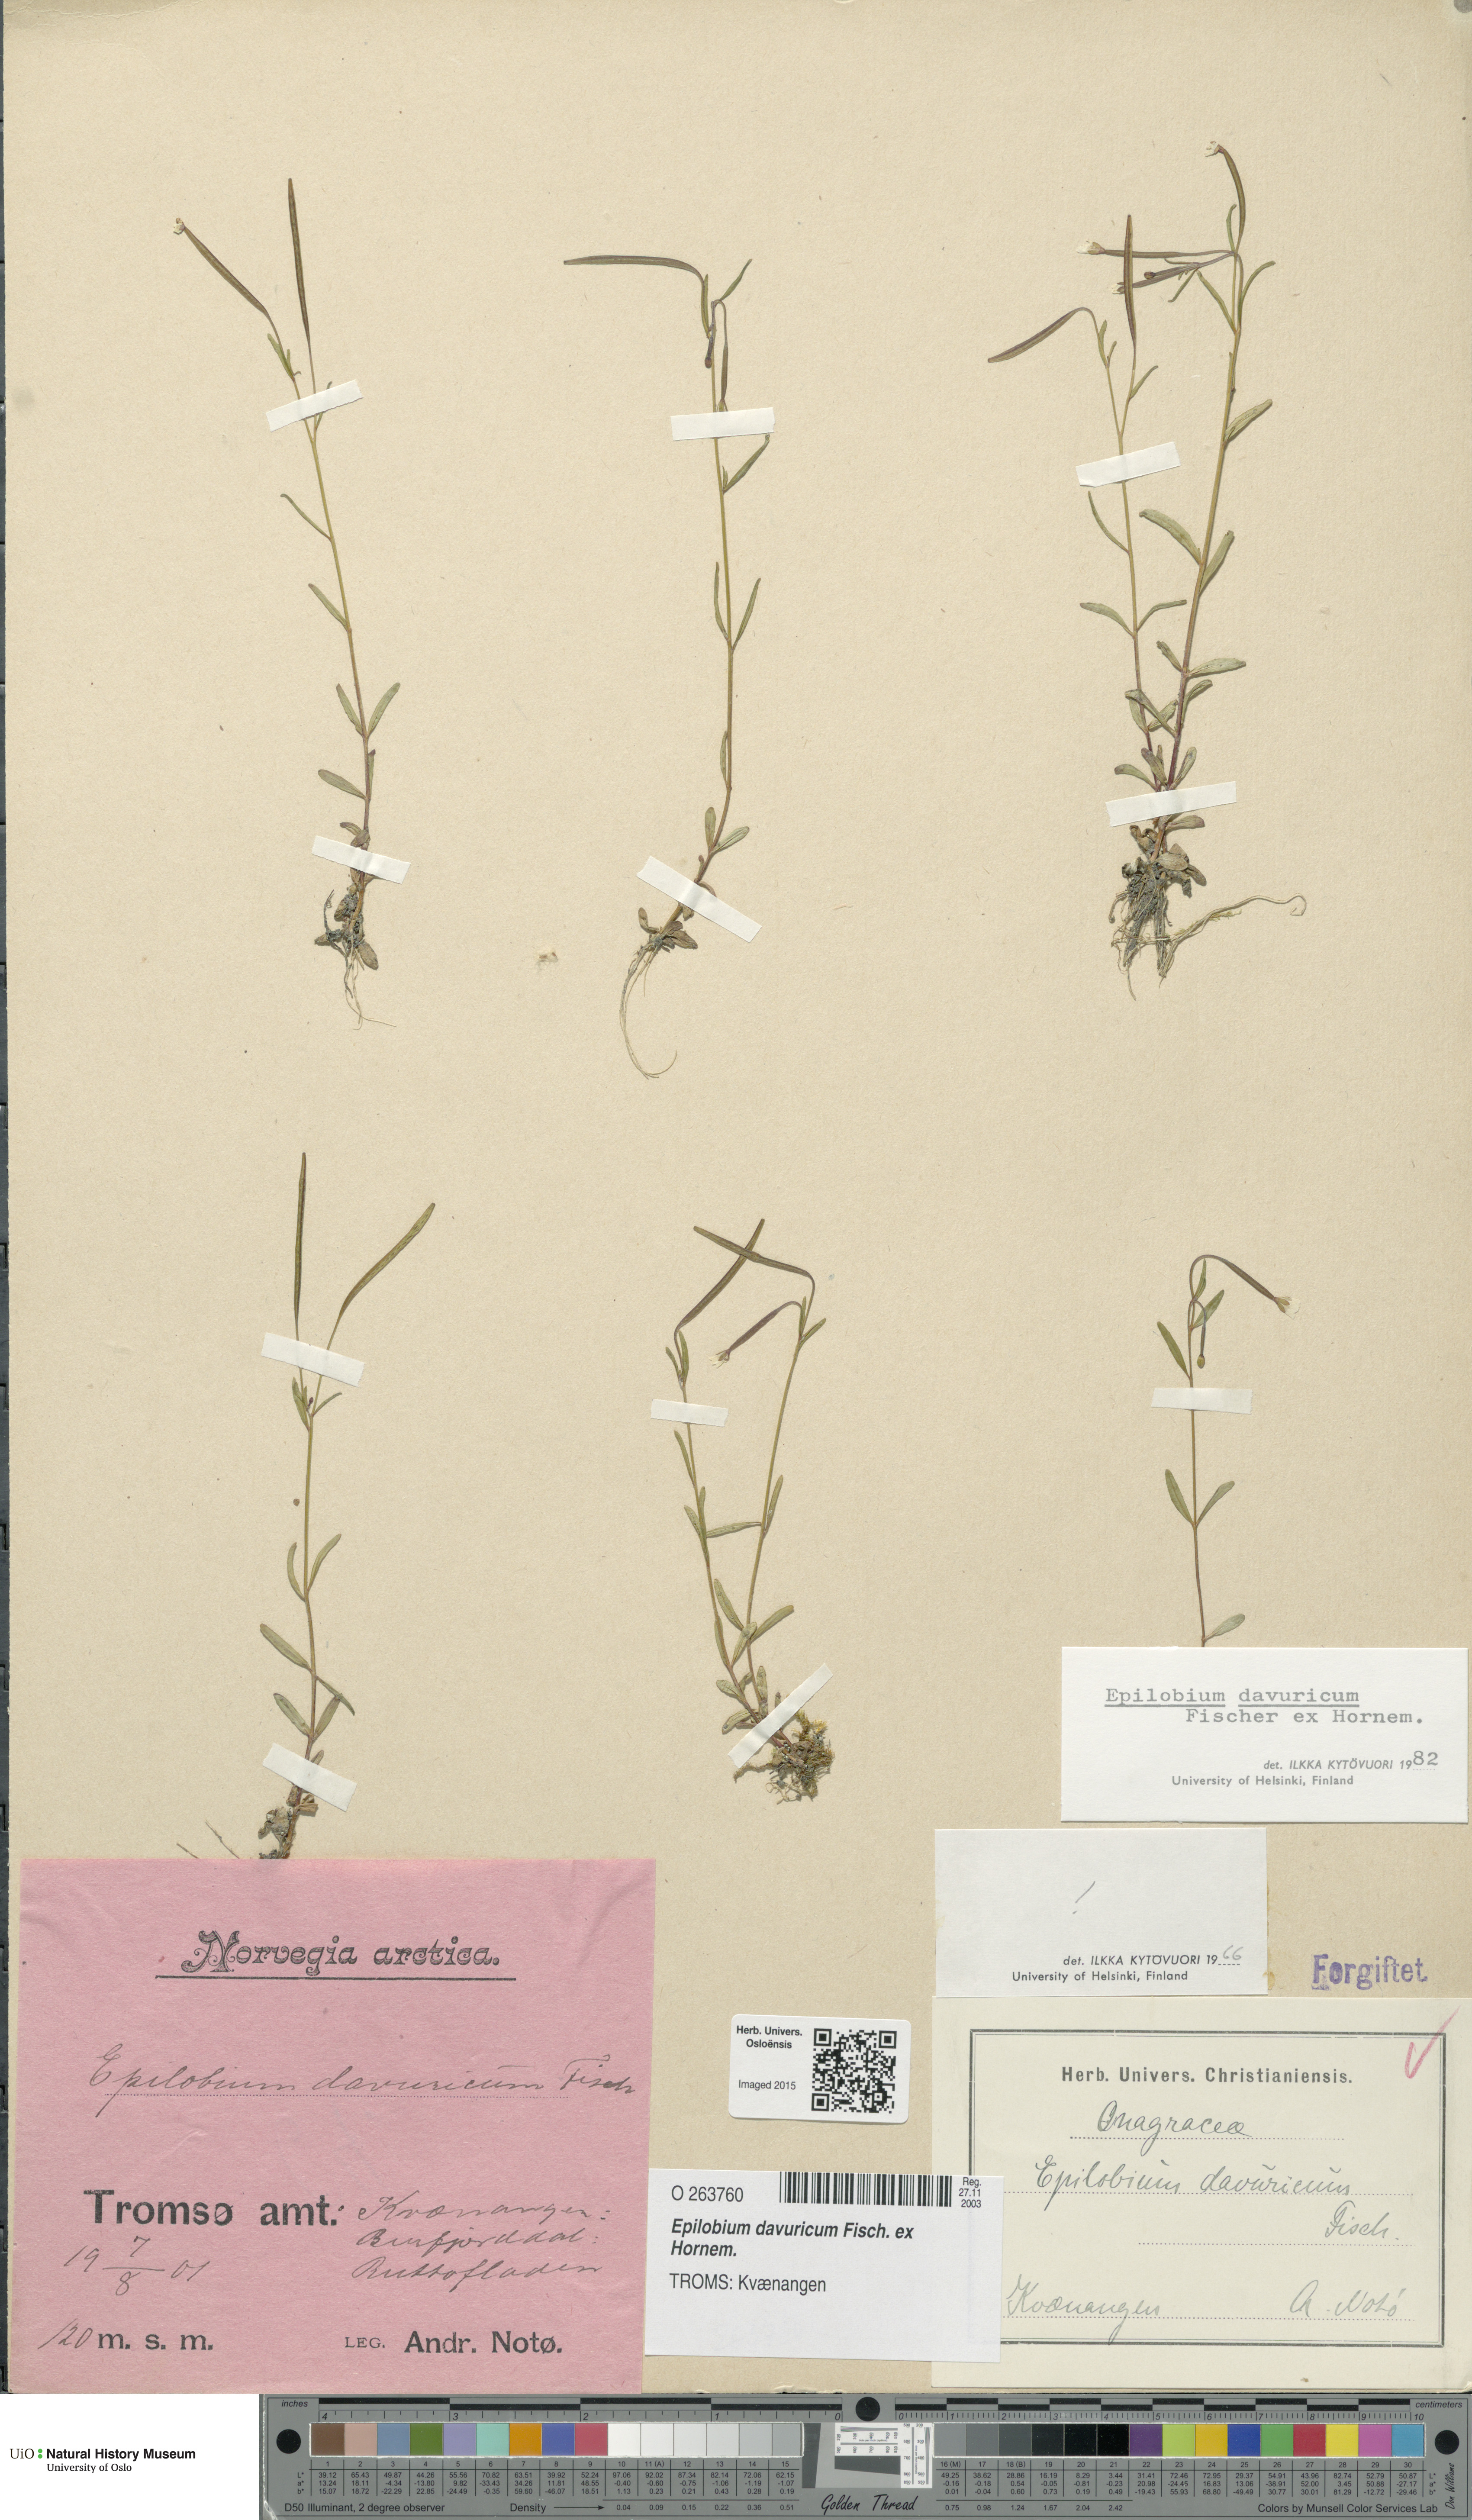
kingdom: Plantae
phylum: Tracheophyta
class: Magnoliopsida
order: Myrtales
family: Onagraceae
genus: Epilobium
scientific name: Epilobium davuricum
